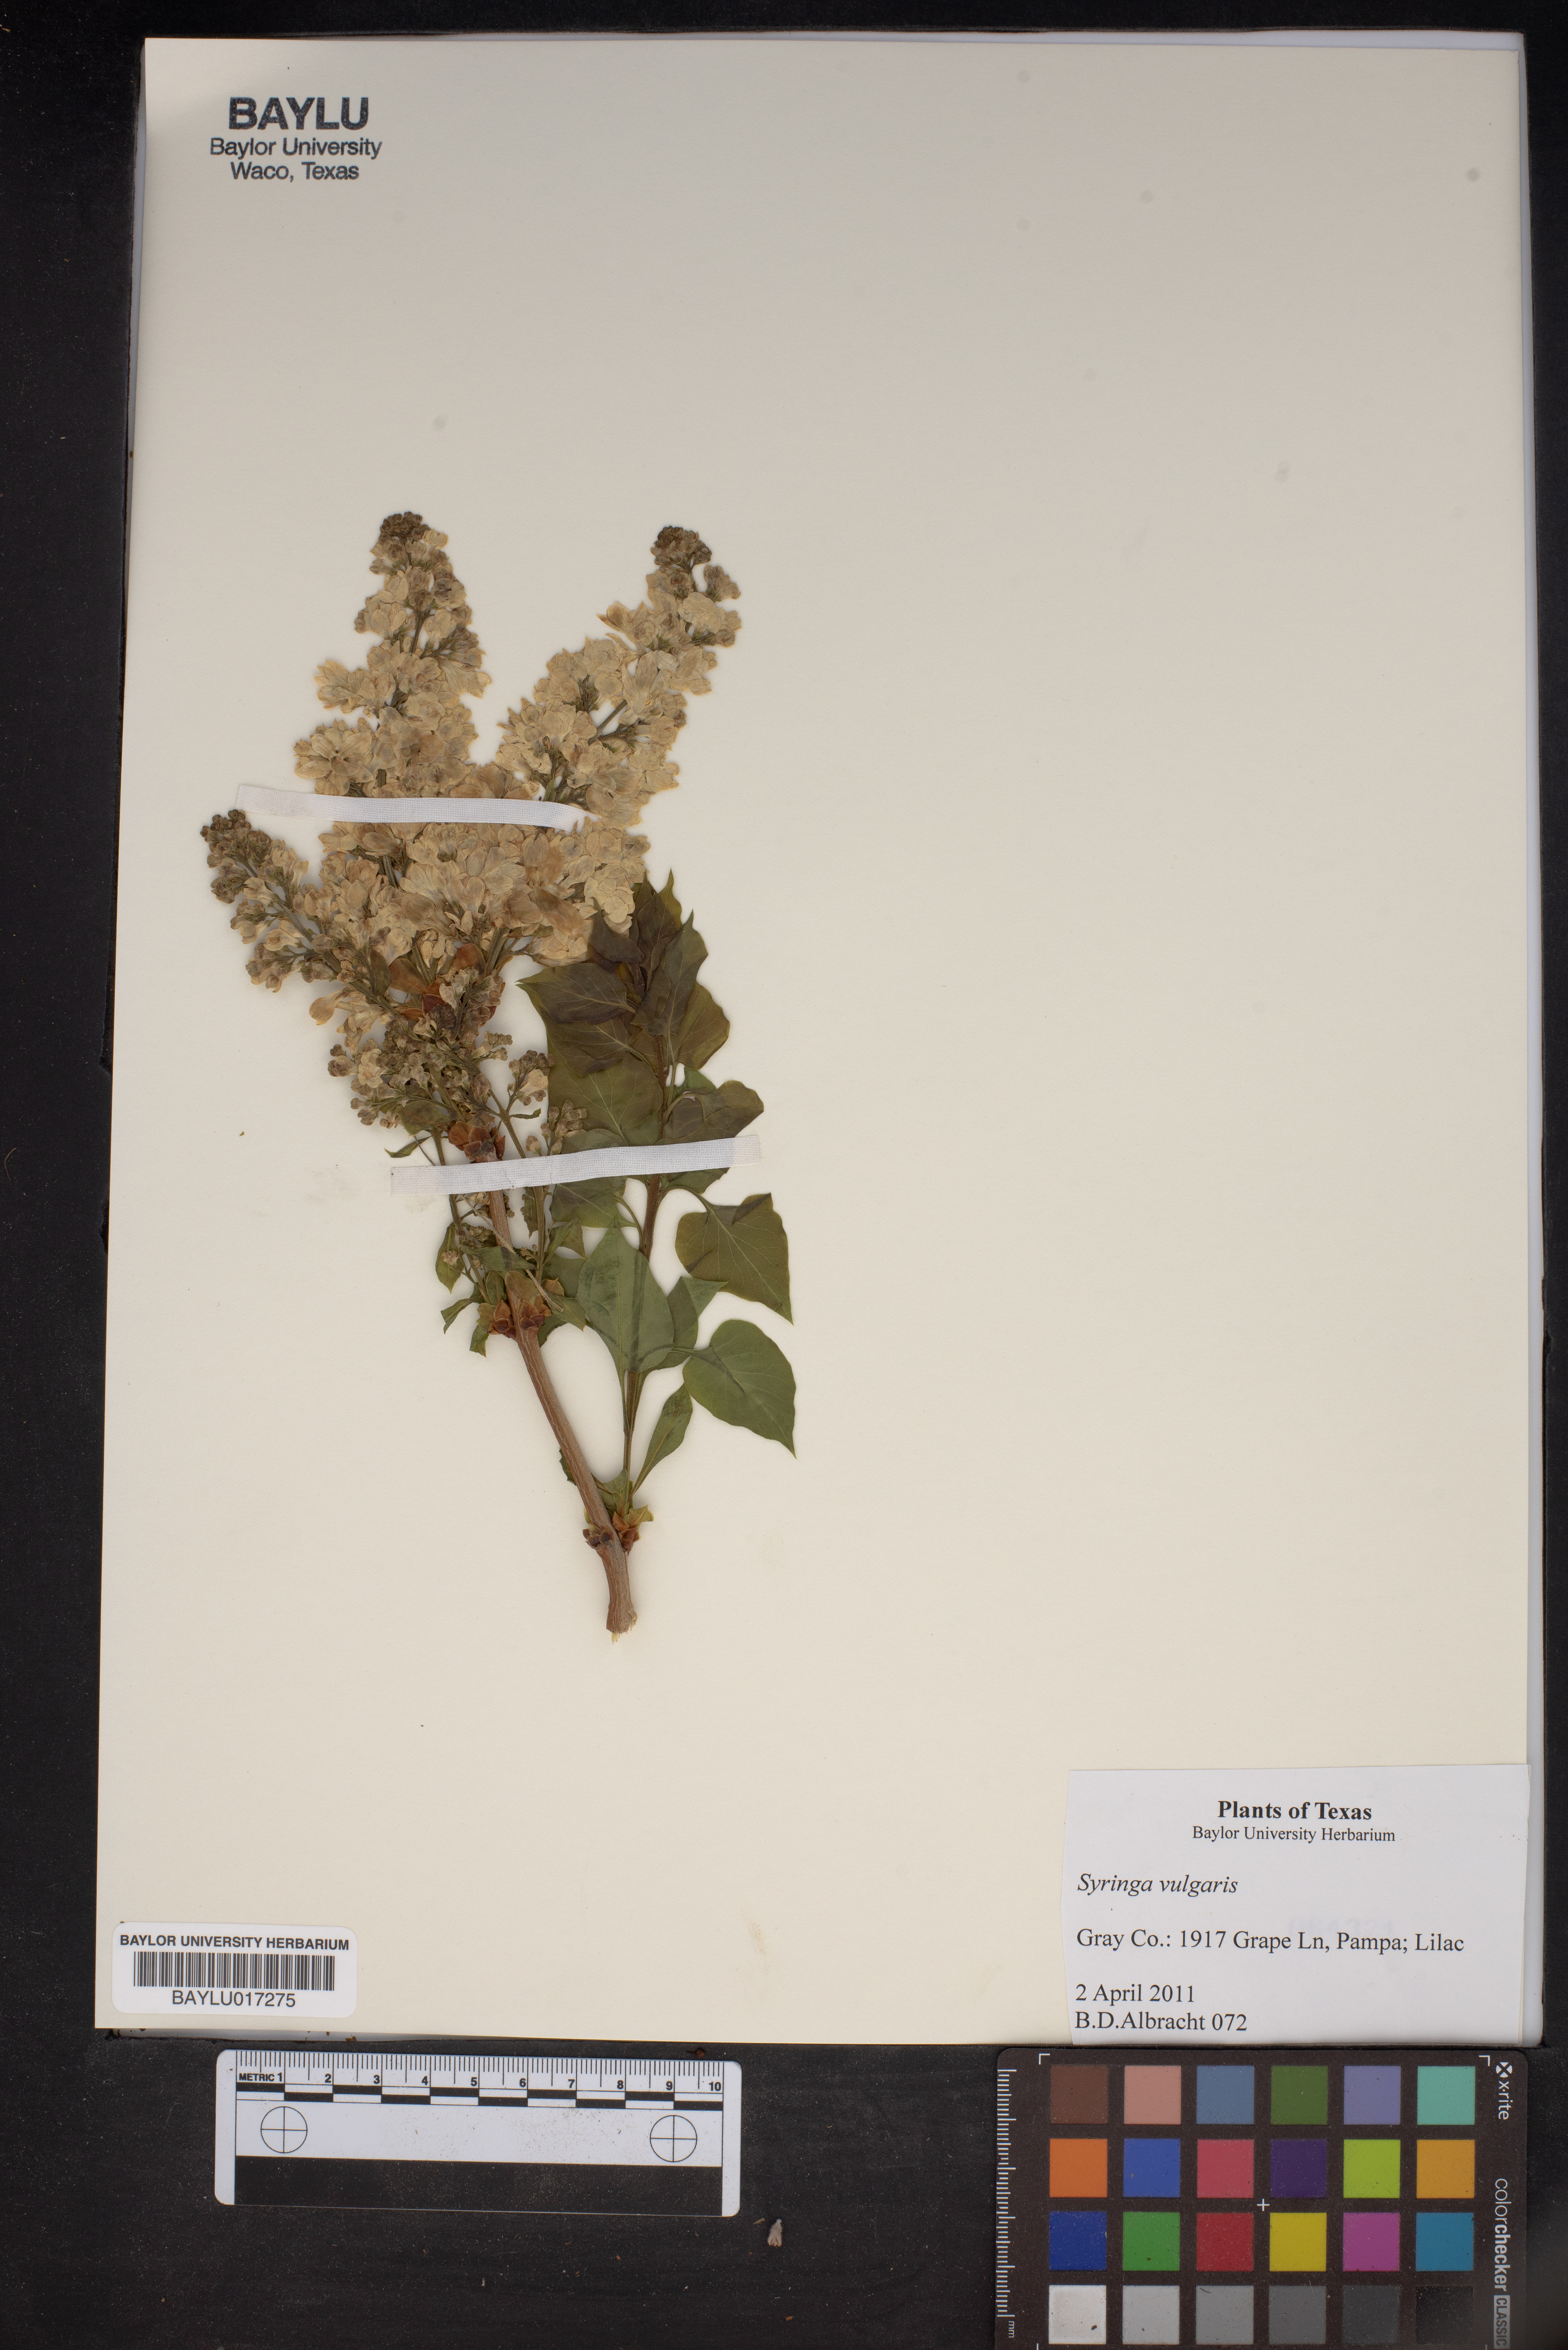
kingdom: Plantae
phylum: Tracheophyta
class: Magnoliopsida
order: Lamiales
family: Oleaceae
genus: Syringa
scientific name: Syringa vulgaris
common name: Common lilac
